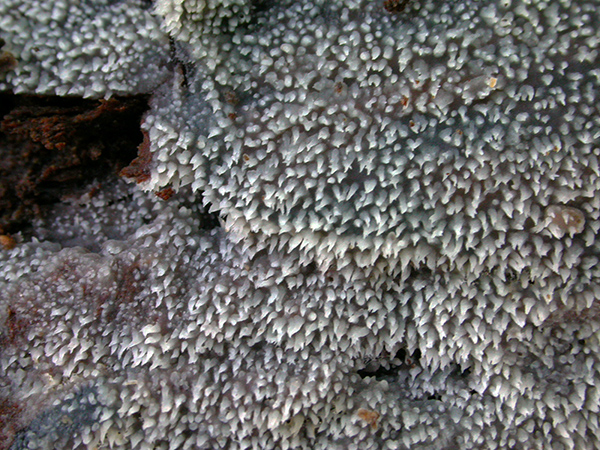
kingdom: Fungi
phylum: Basidiomycota
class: Agaricomycetes
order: Auriculariales
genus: Stypella
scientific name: Stypella subgelatinosa
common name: pigget bævregryn
